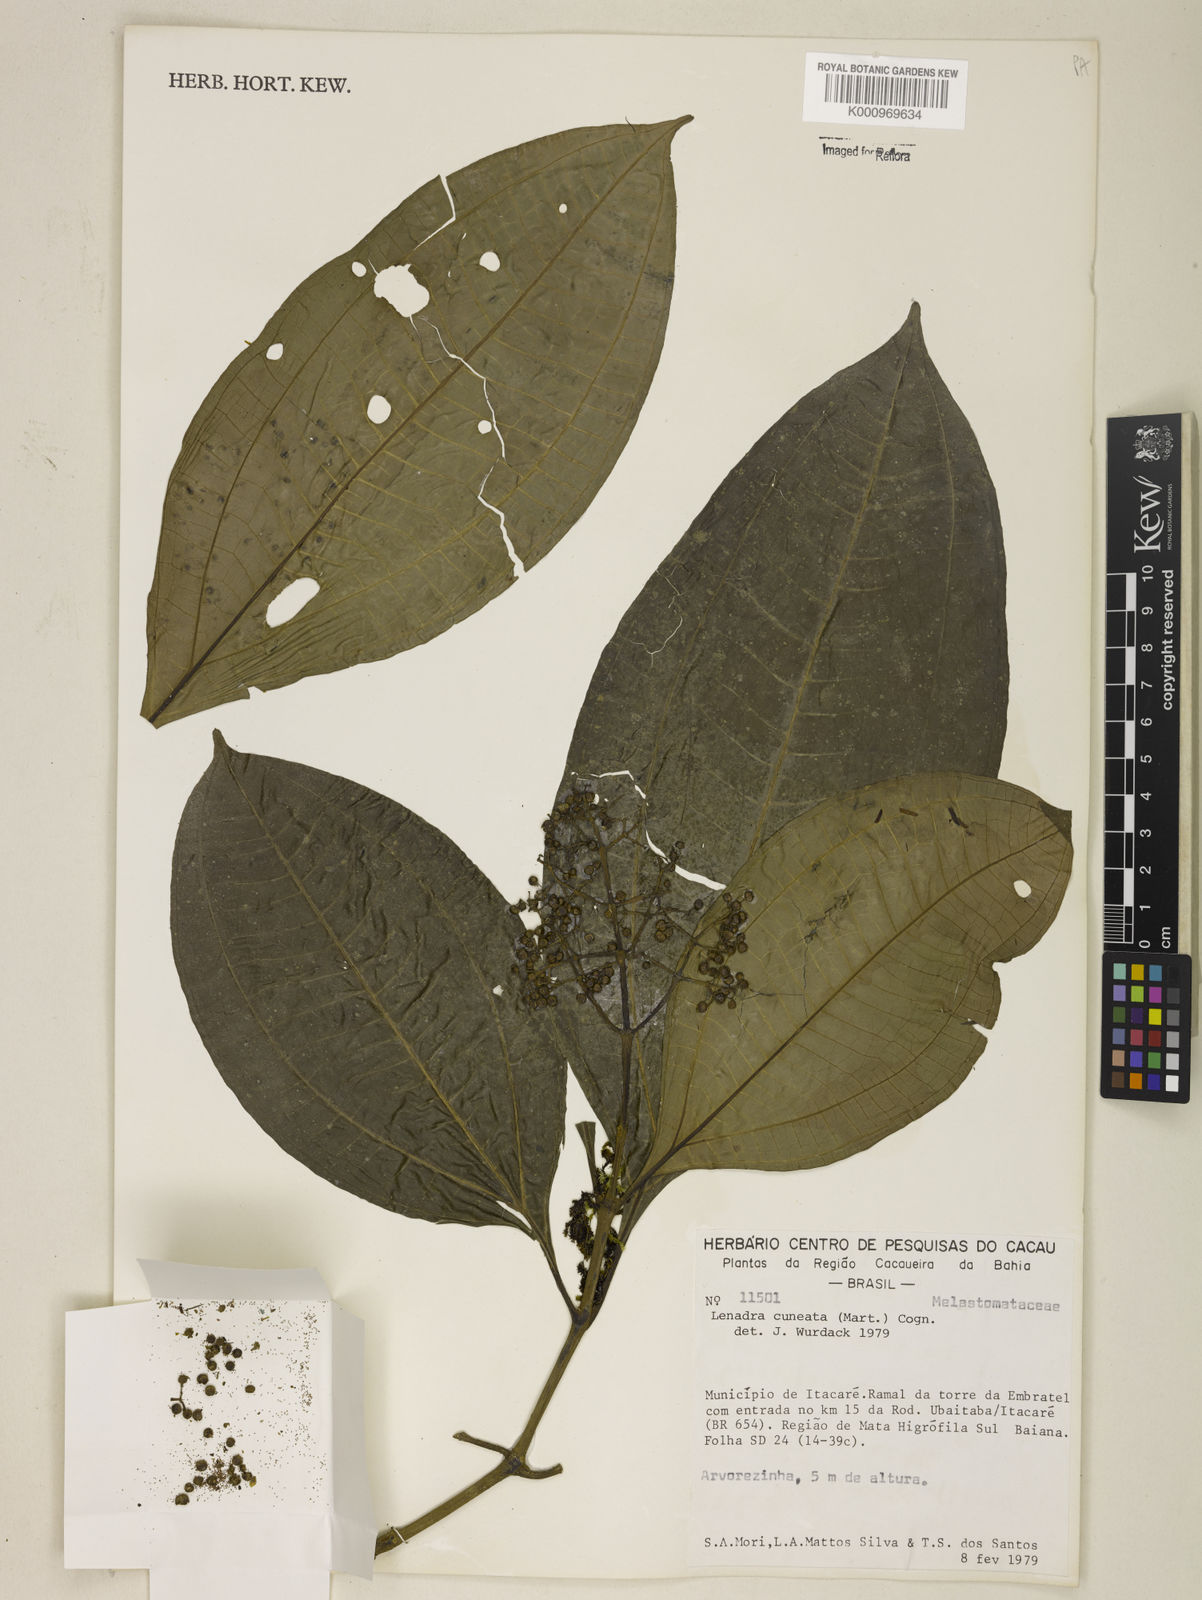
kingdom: Plantae
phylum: Tracheophyta
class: Magnoliopsida
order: Myrtales
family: Melastomataceae
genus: Miconia
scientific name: Miconia cuneatissima
